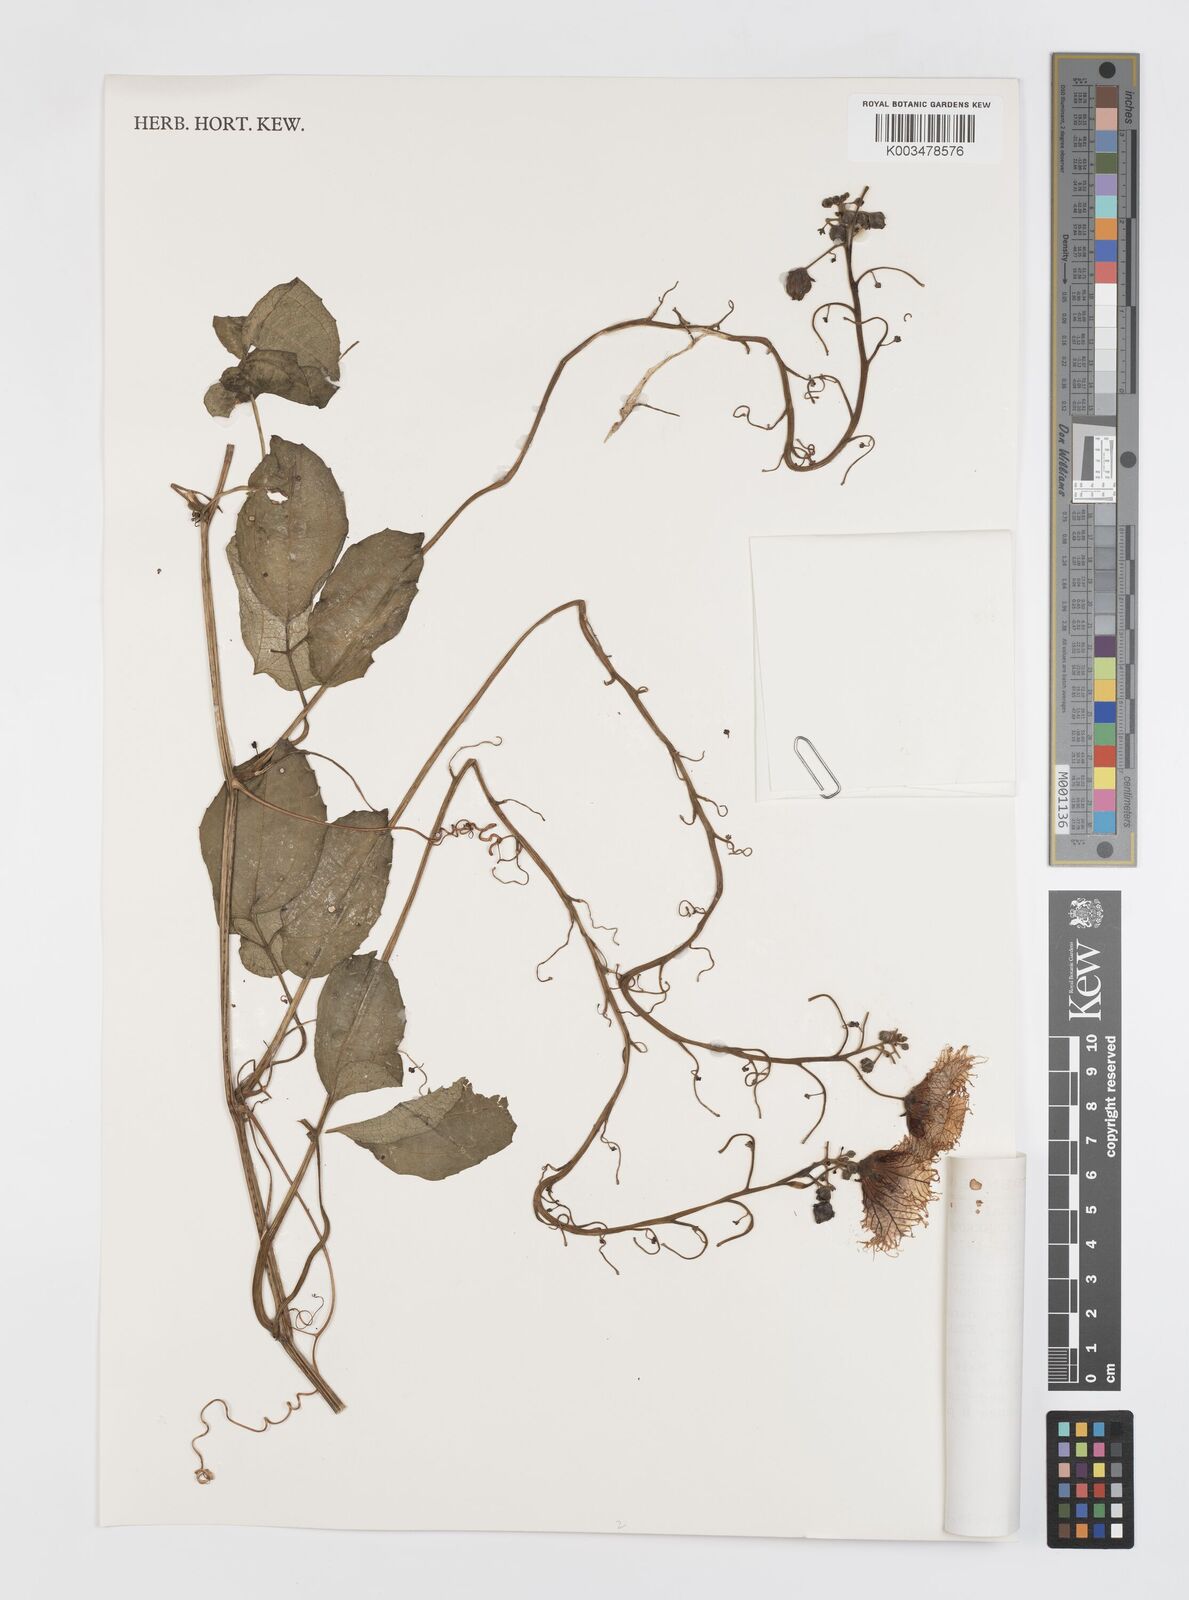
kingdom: Plantae
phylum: Tracheophyta
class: Magnoliopsida
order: Cucurbitales
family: Cucurbitaceae
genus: Telfairia
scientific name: Telfairia occidentalis
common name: Oysternut
